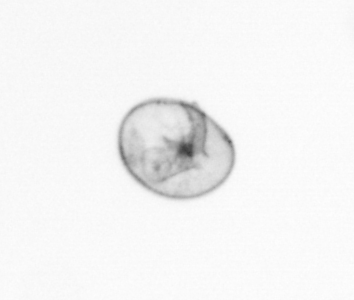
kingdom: Chromista
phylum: Myzozoa
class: Dinophyceae
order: Noctilucales
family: Noctilucaceae
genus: Noctiluca
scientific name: Noctiluca scintillans
